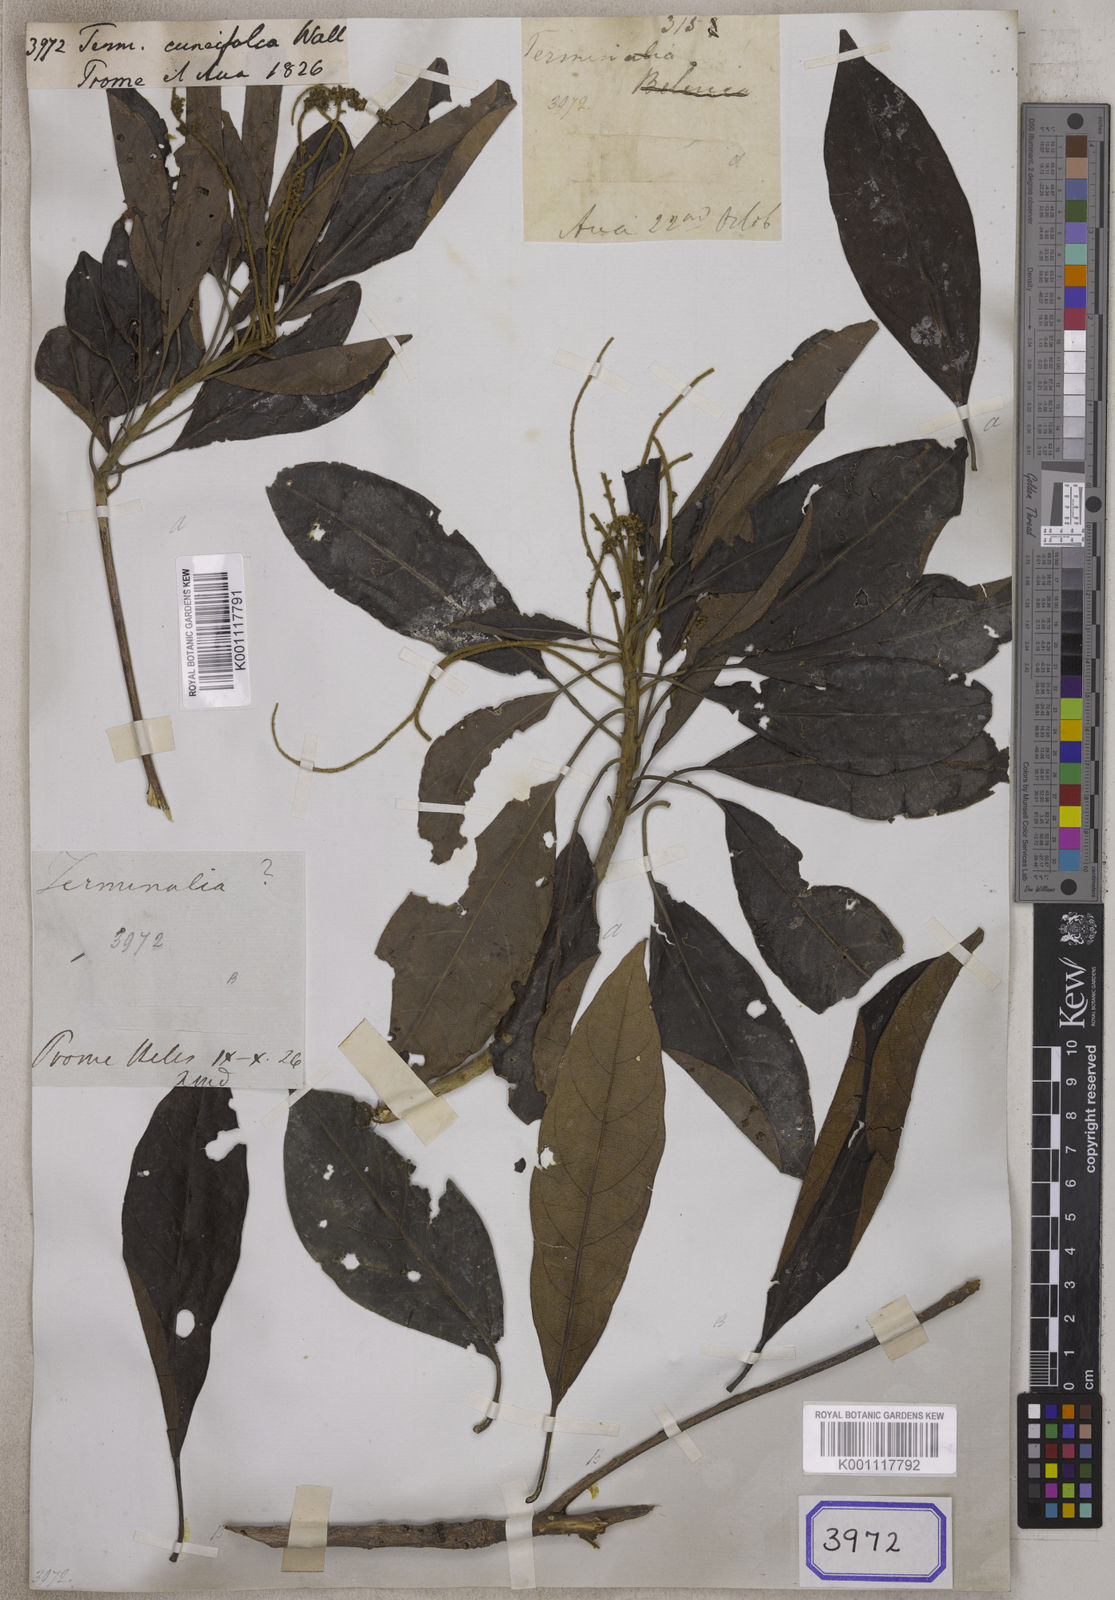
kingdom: Plantae
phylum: Tracheophyta
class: Magnoliopsida
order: Myrtales
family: Combretaceae
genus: Terminalia
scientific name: Terminalia cuneifolia
